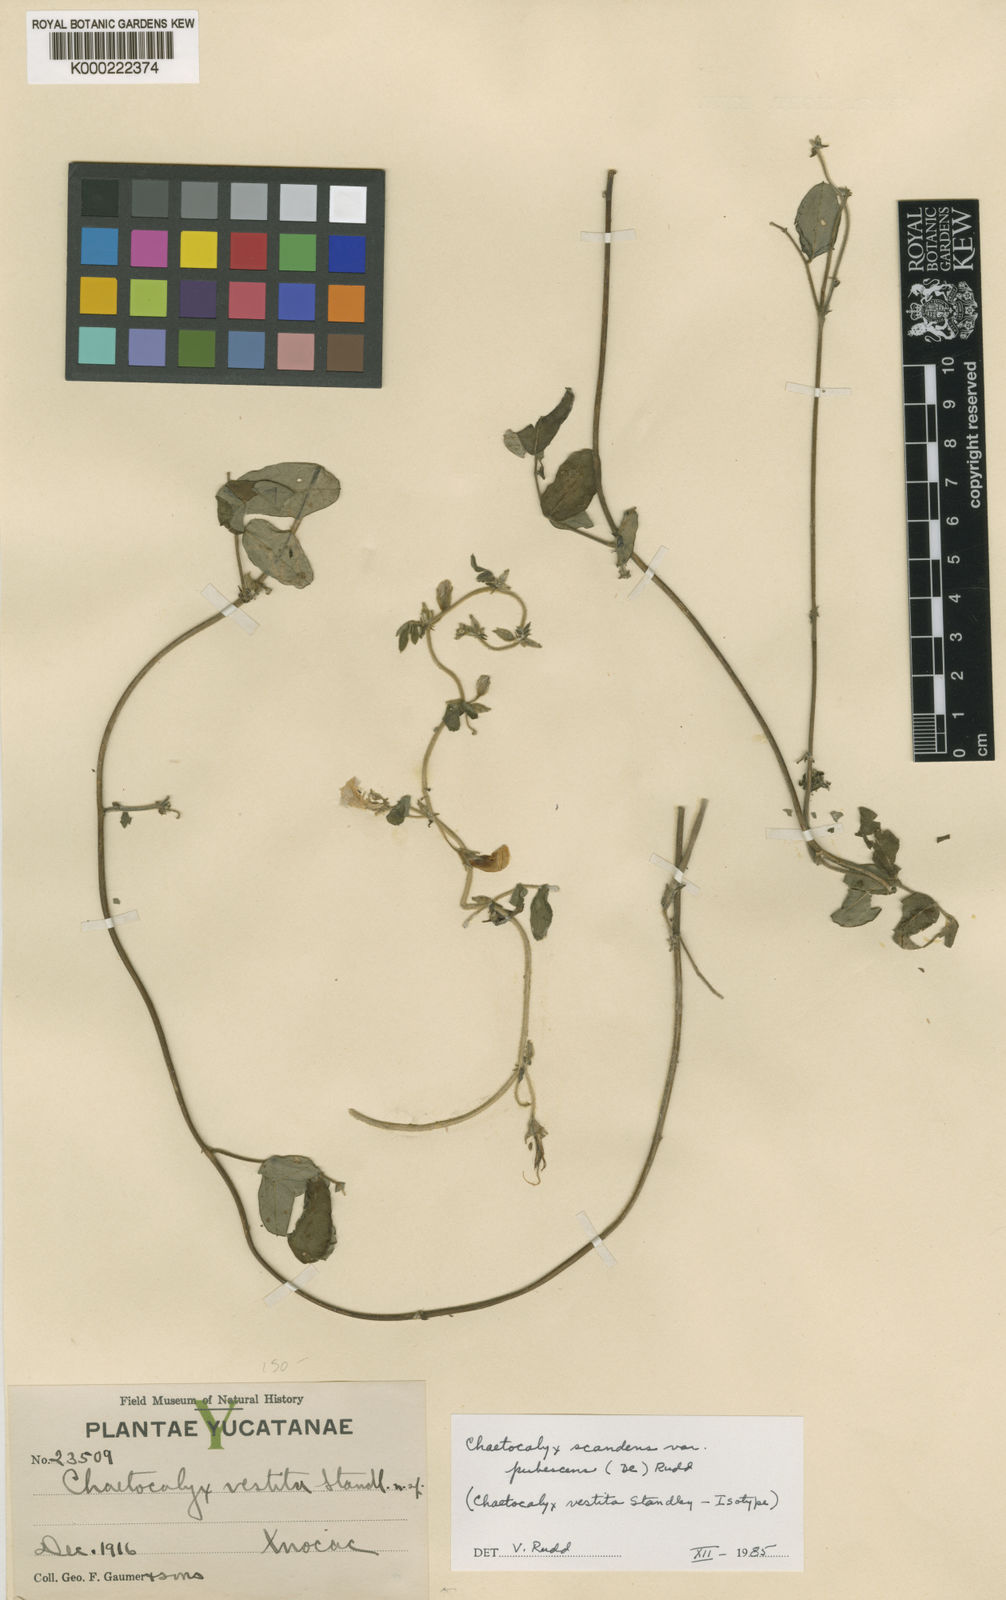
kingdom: Plantae
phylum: Tracheophyta
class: Magnoliopsida
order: Fabales
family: Fabaceae
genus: Nissolia
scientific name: Nissolia vincentina
